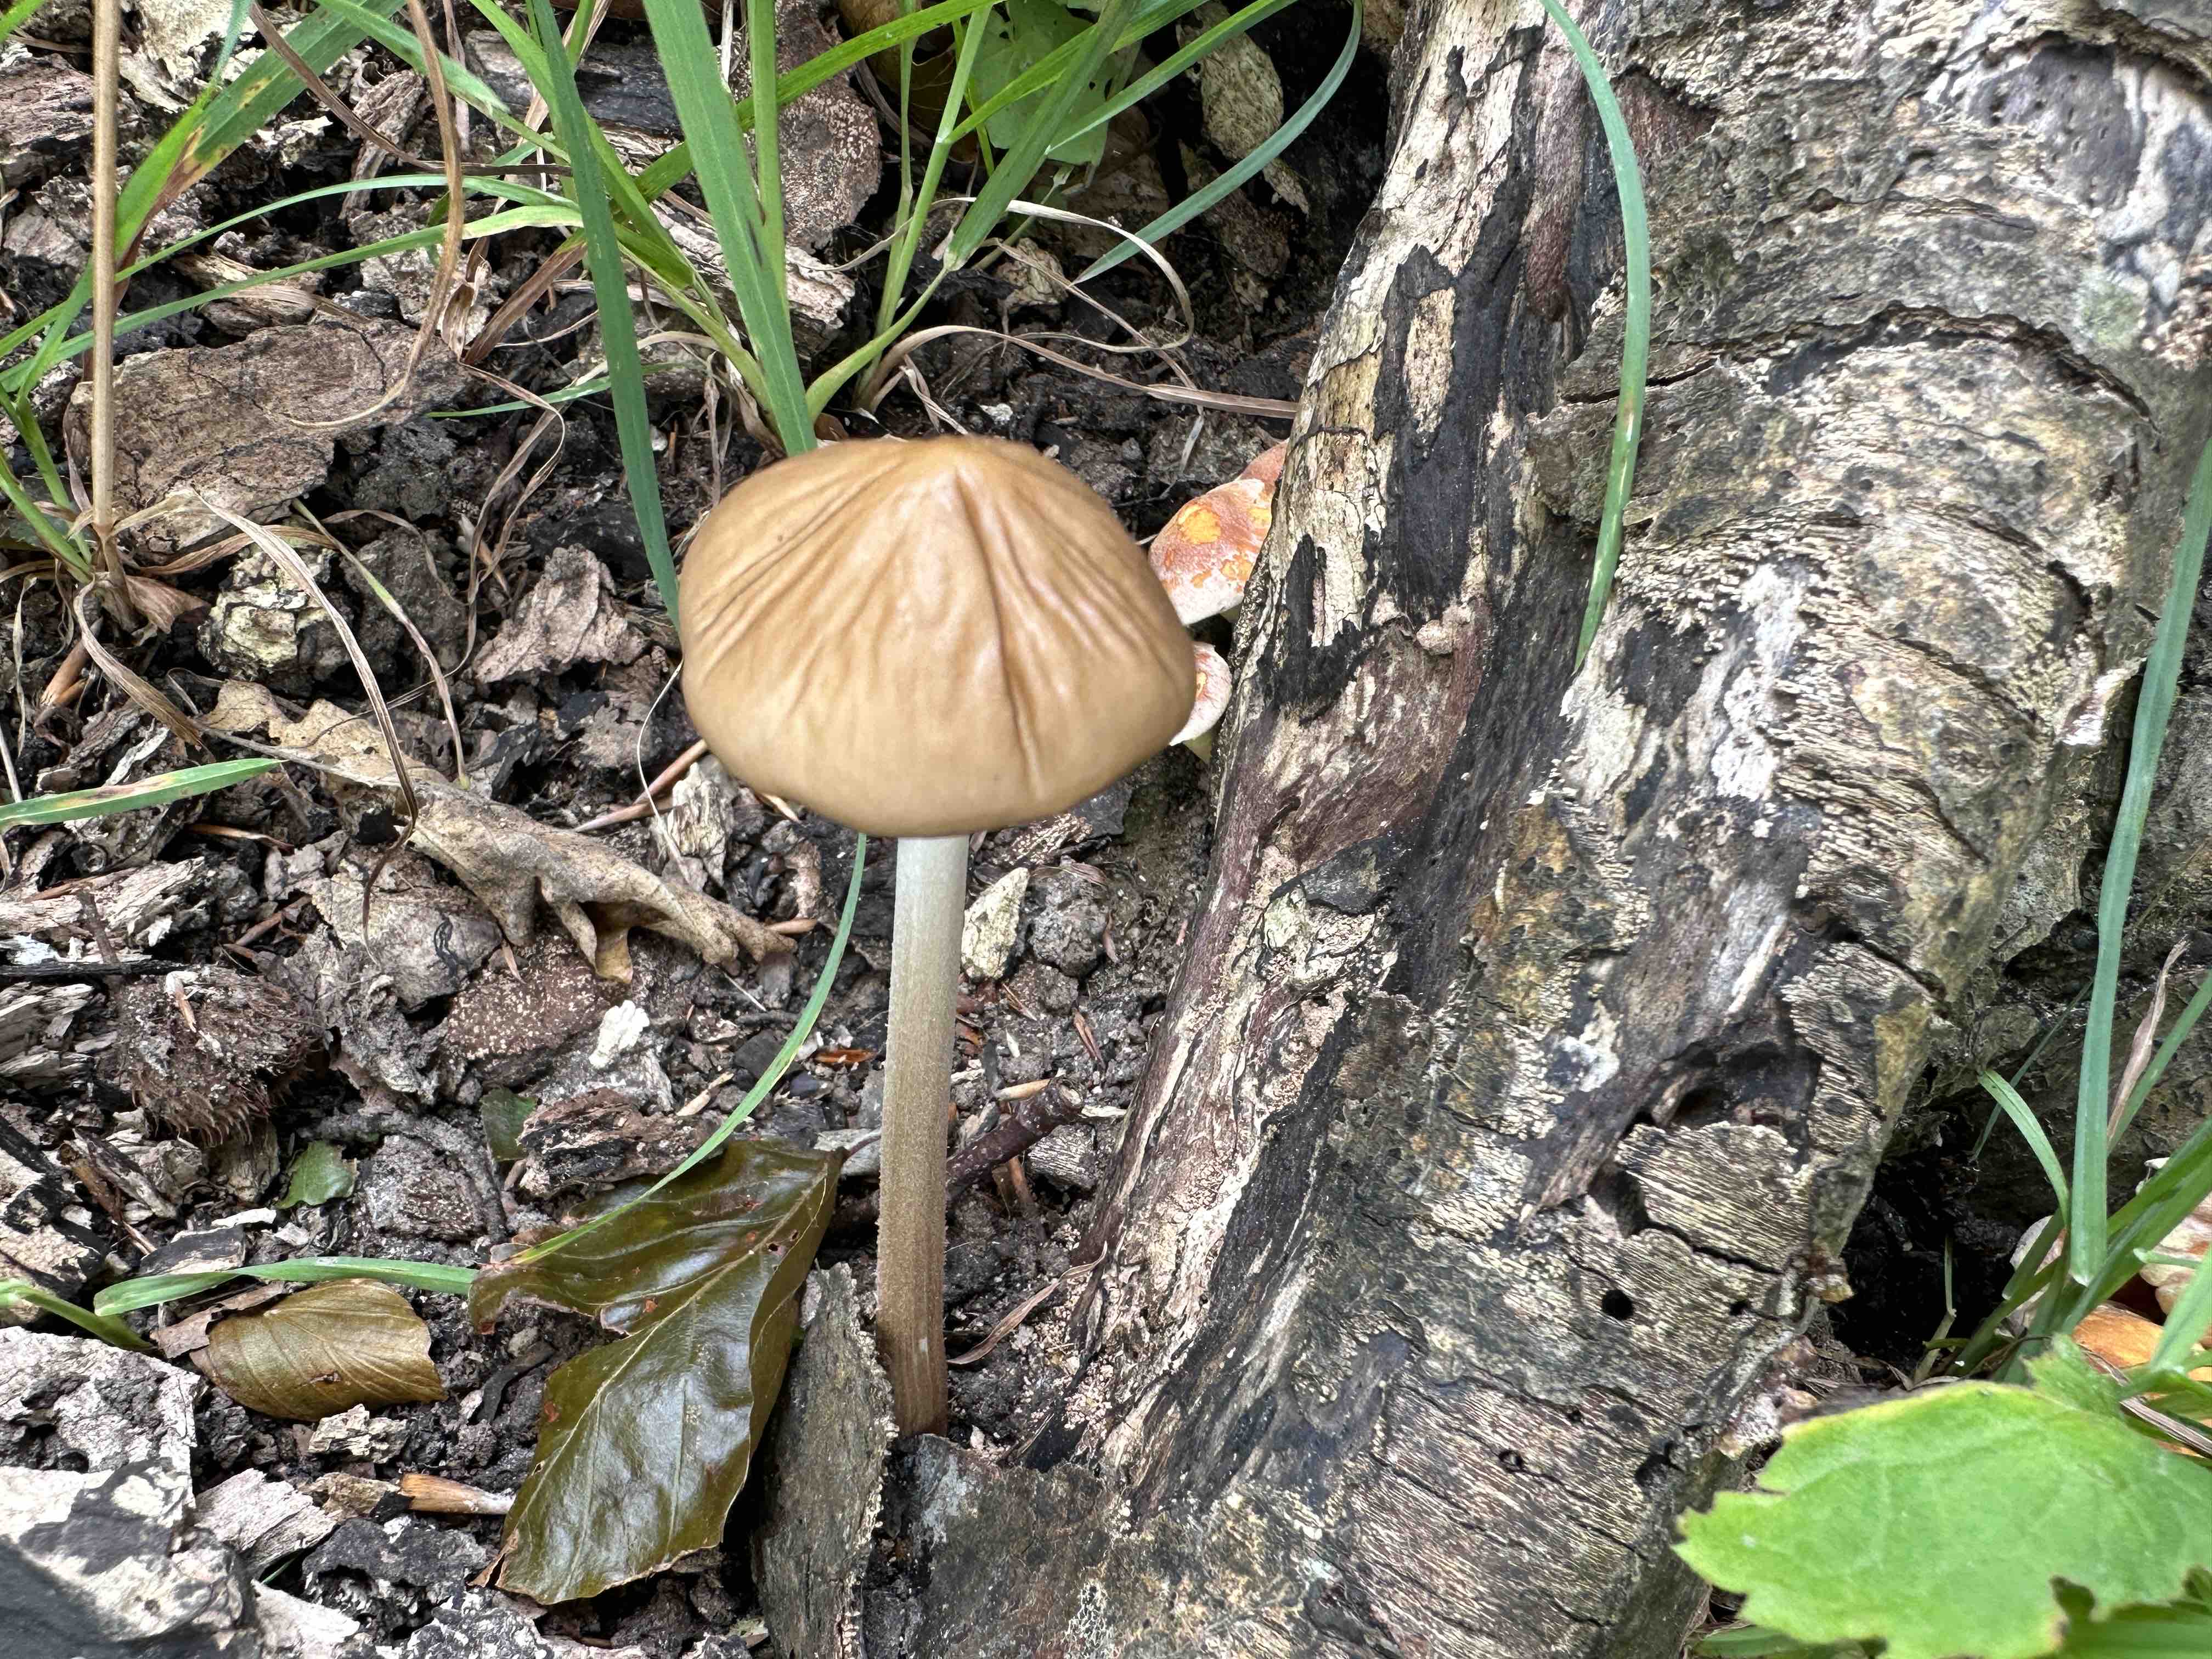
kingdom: Fungi
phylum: Basidiomycota
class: Agaricomycetes
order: Agaricales
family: Physalacriaceae
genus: Hymenopellis
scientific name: Hymenopellis radicata
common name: almindelig pælerodshat
